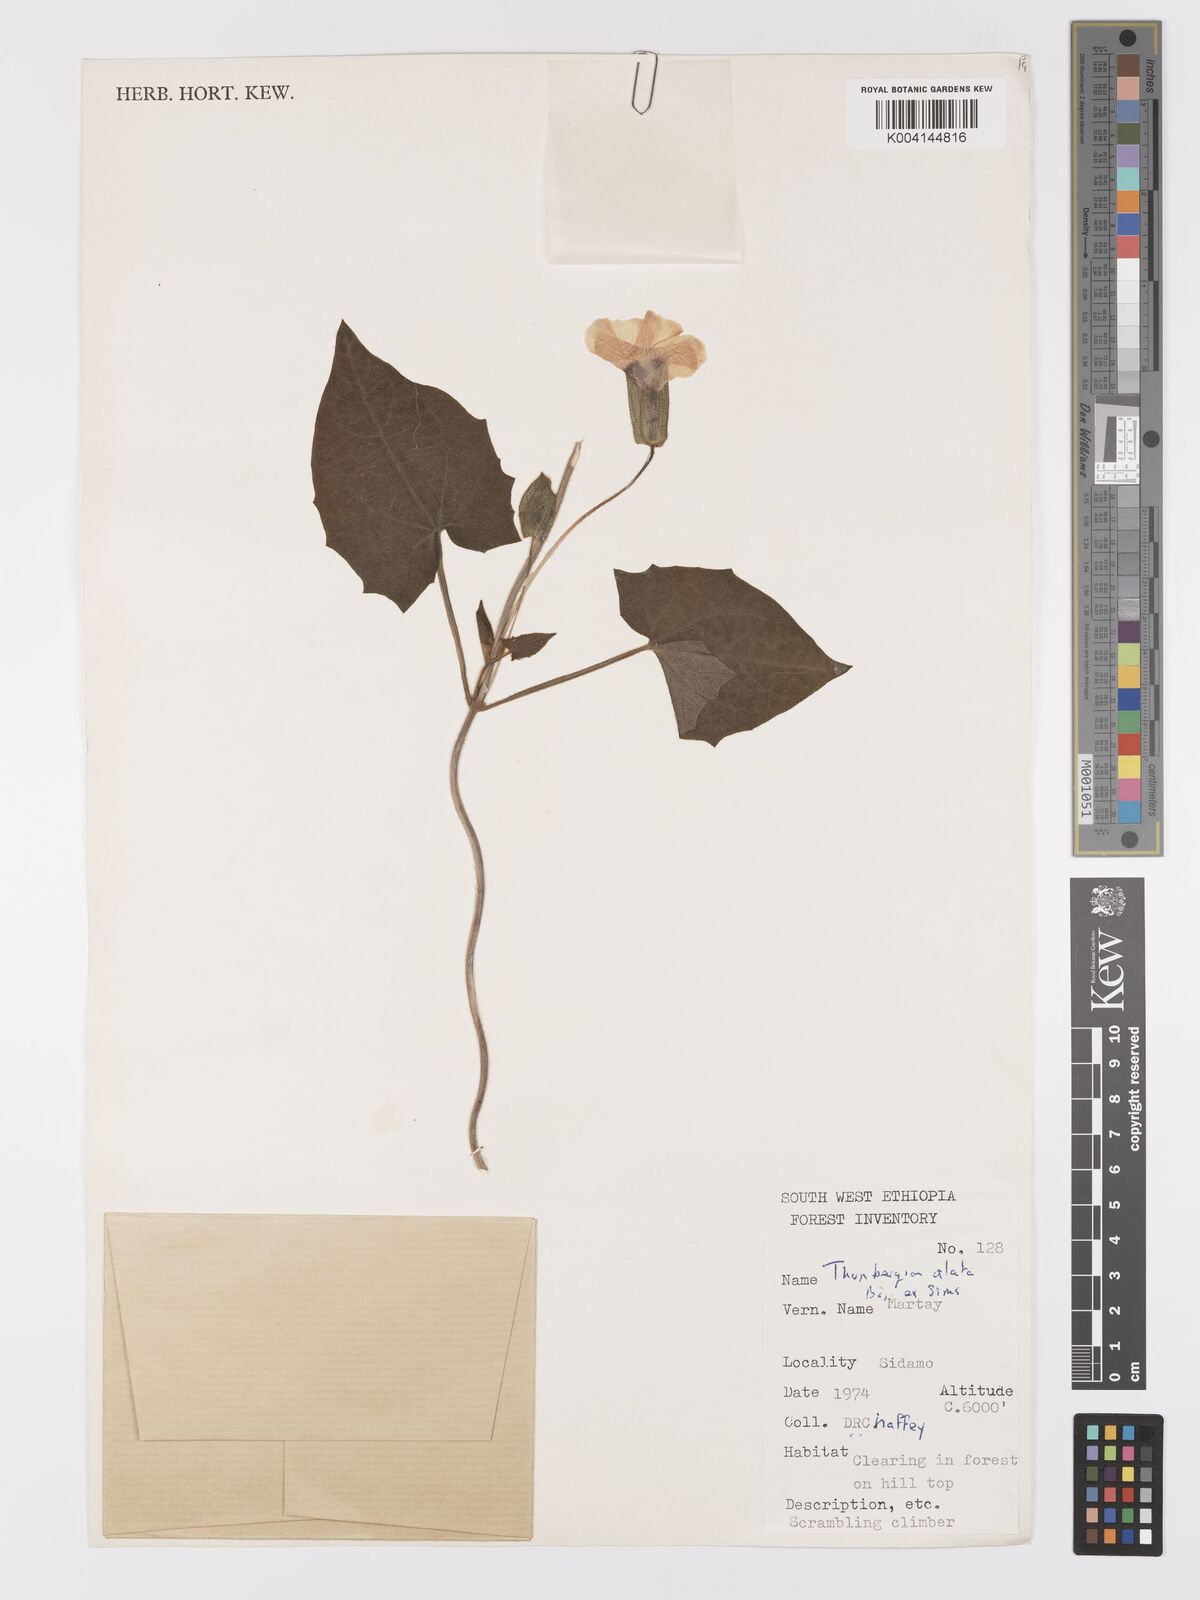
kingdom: Plantae
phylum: Tracheophyta
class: Magnoliopsida
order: Lamiales
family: Acanthaceae
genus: Thunbergia
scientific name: Thunbergia alata
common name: Blackeyed susan vine
